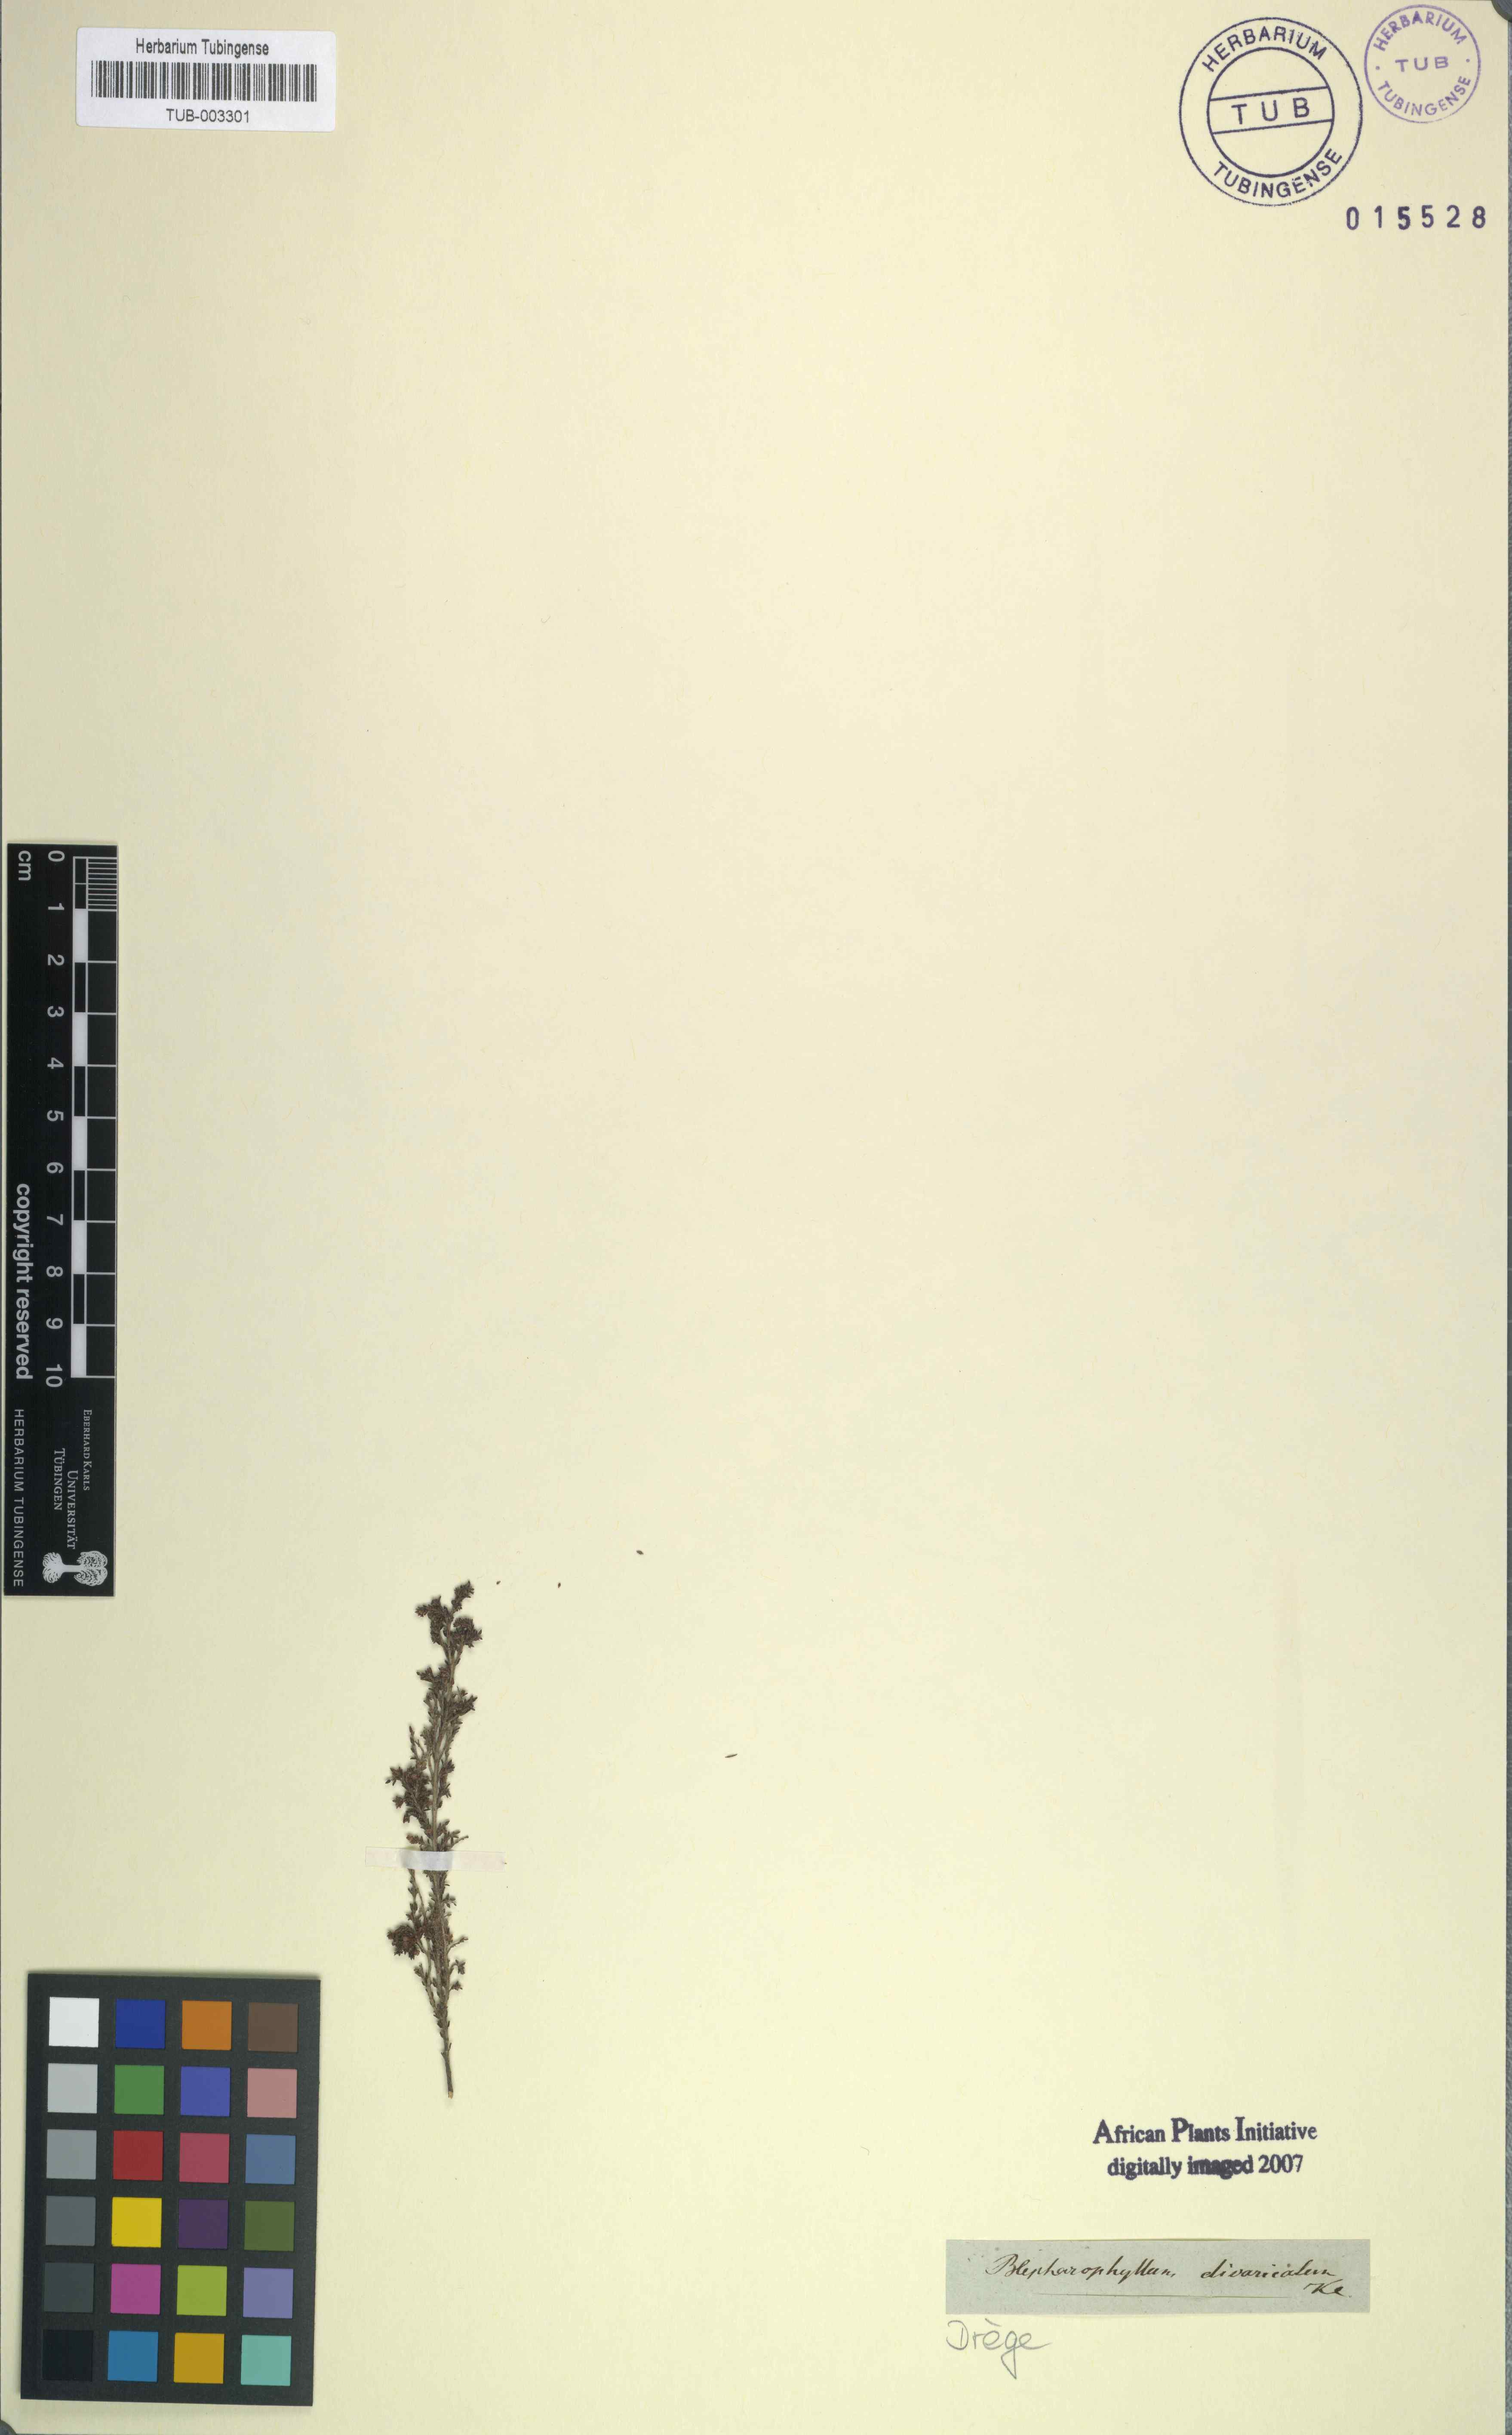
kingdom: Plantae
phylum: Tracheophyta
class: Magnoliopsida
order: Ericales
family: Ericaceae
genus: Erica
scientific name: Erica rigidula
